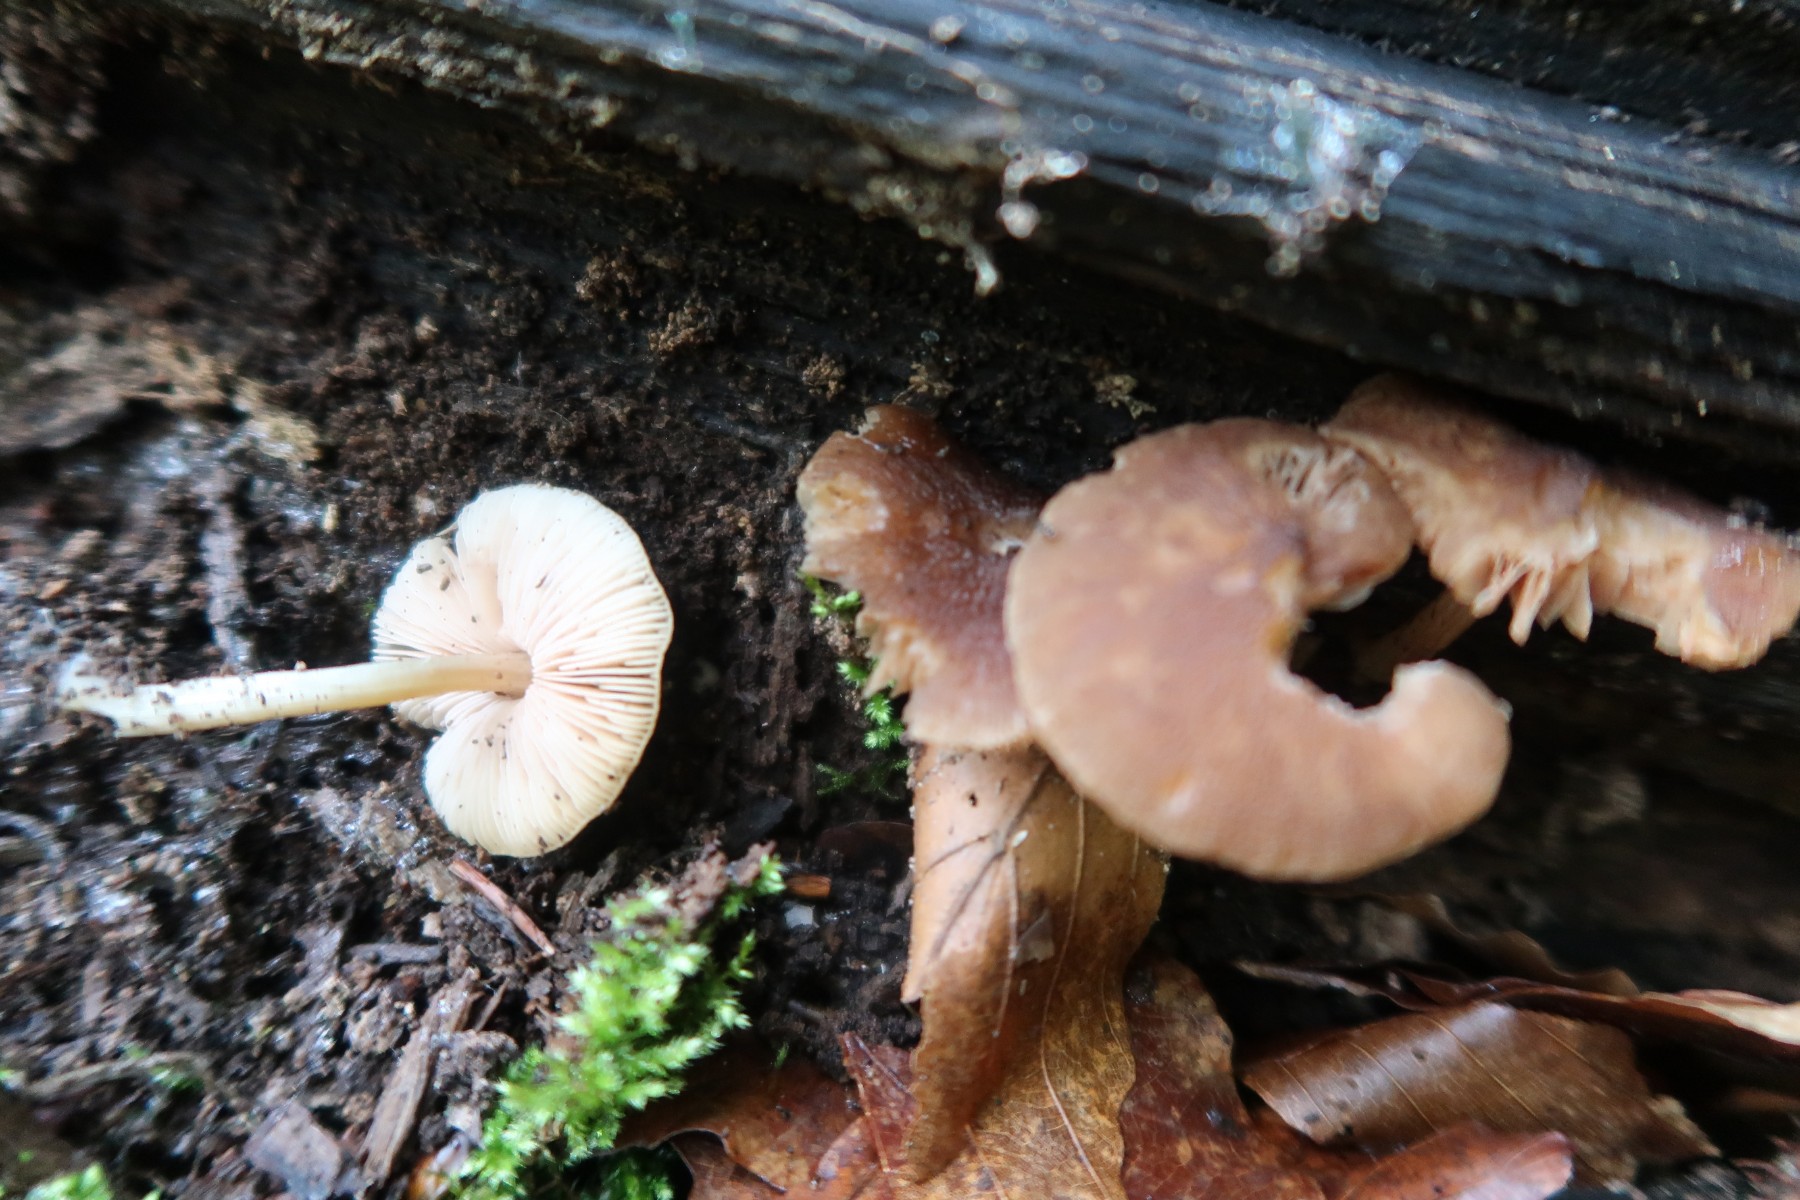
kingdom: Fungi
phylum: Basidiomycota
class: Agaricomycetes
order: Agaricales
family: Pluteaceae
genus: Pluteus
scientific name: Pluteus phlebophorus
